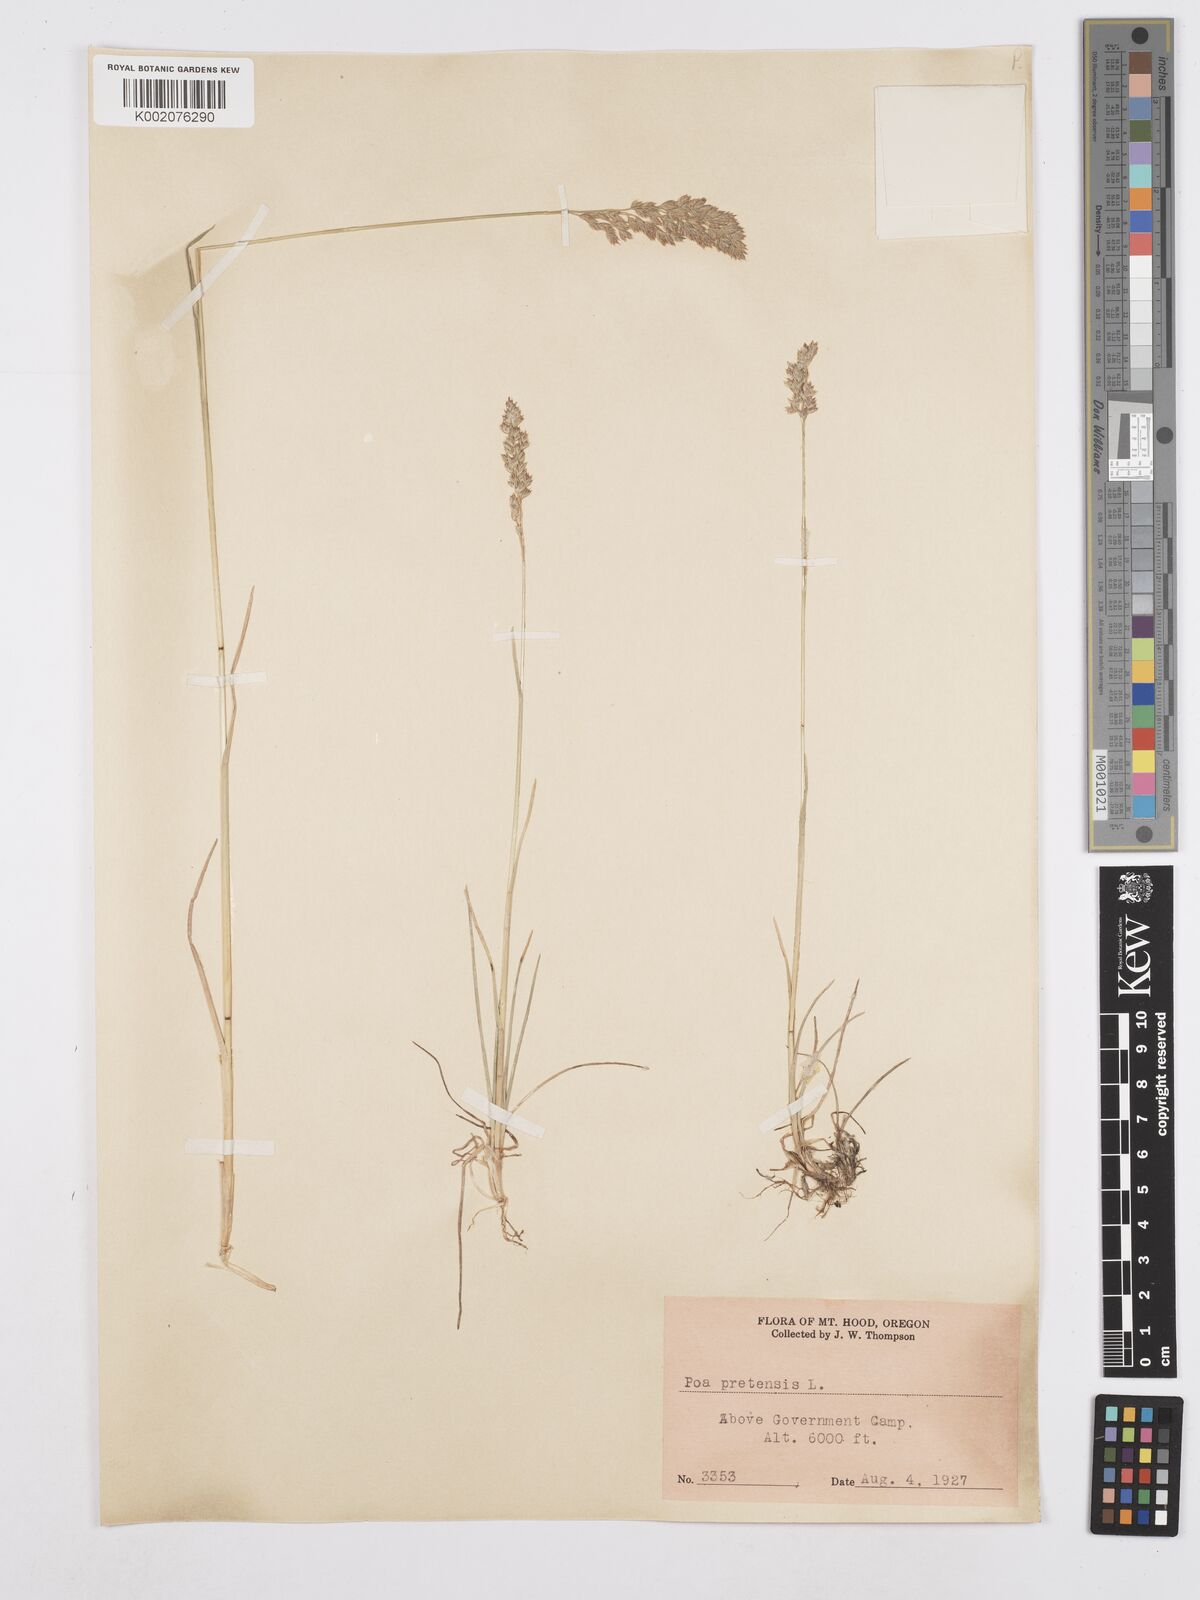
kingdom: Plantae
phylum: Tracheophyta
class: Liliopsida
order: Poales
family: Poaceae
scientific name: Poaceae
